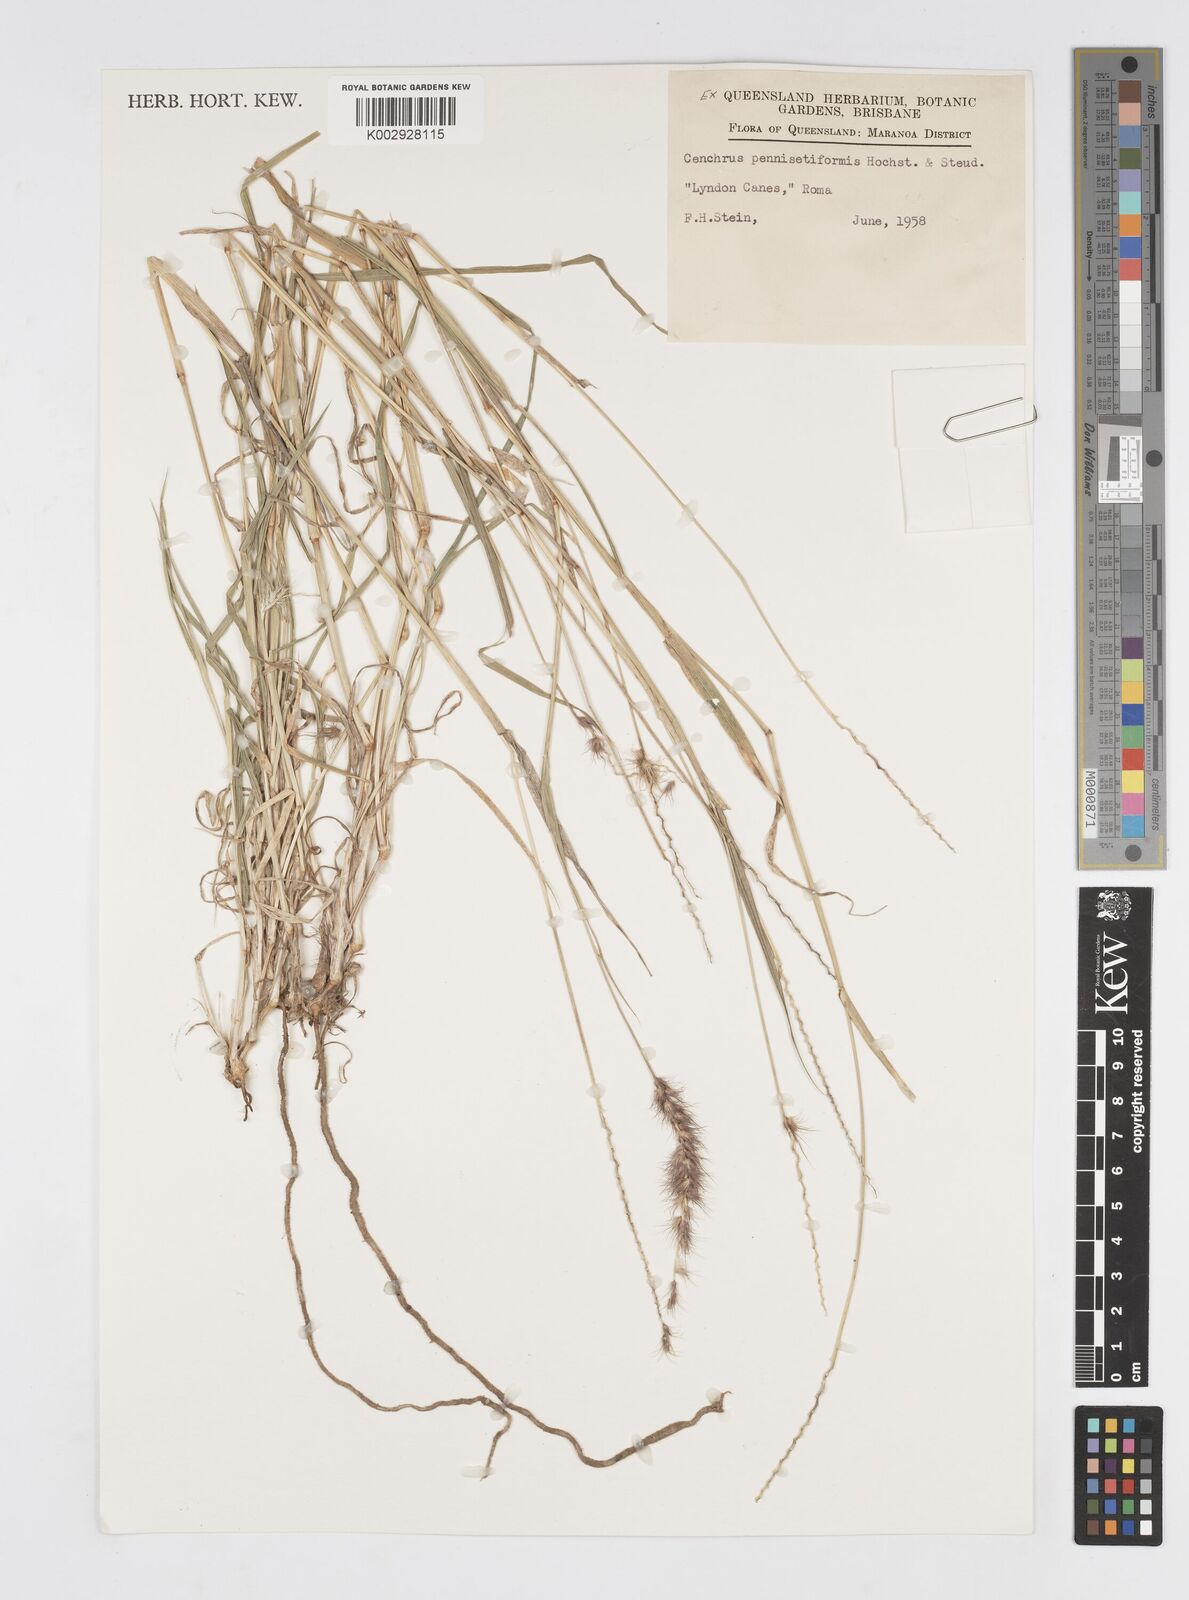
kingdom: Plantae
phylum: Tracheophyta
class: Liliopsida
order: Poales
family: Poaceae
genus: Cenchrus
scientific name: Cenchrus ciliaris
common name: Buffelgrass
